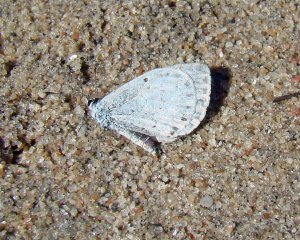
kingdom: Animalia
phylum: Arthropoda
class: Insecta
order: Lepidoptera
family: Lycaenidae
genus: Cyaniris
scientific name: Cyaniris neglecta
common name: Summer Azure
